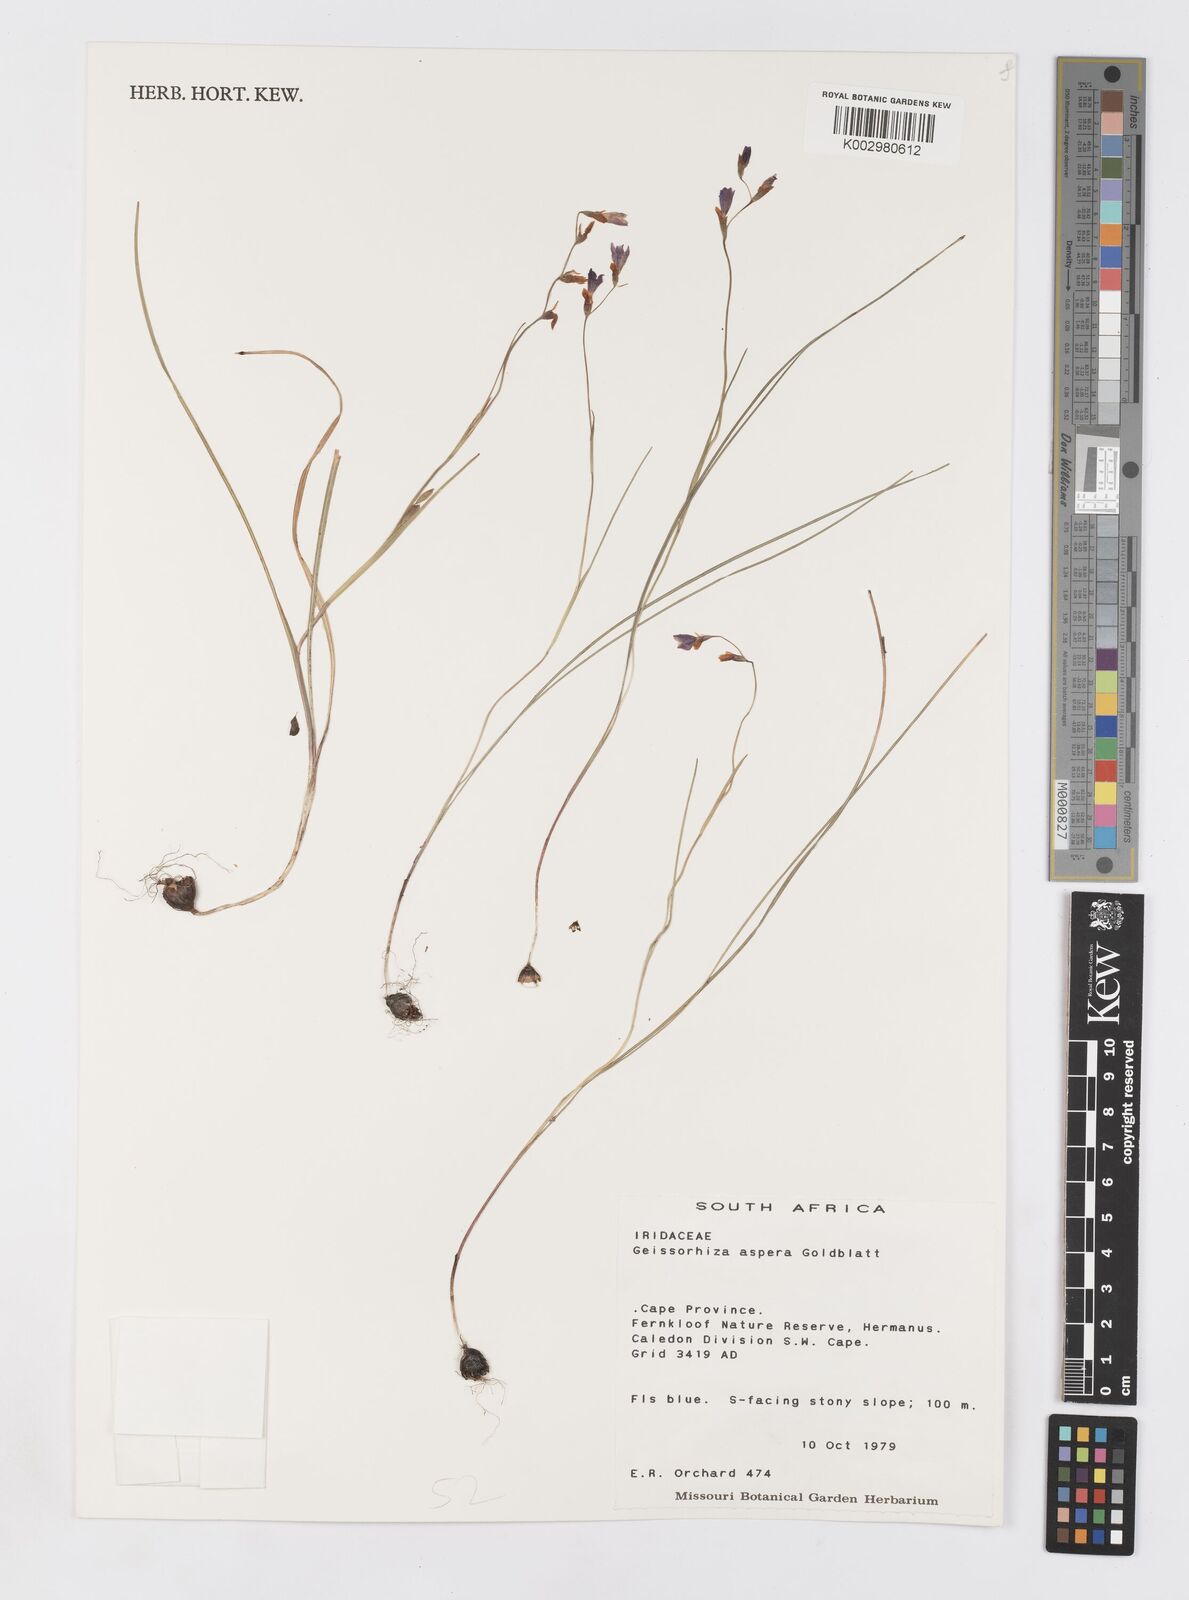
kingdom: Plantae
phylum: Tracheophyta
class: Liliopsida
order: Asparagales
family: Iridaceae
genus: Geissorhiza
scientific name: Geissorhiza aspera
